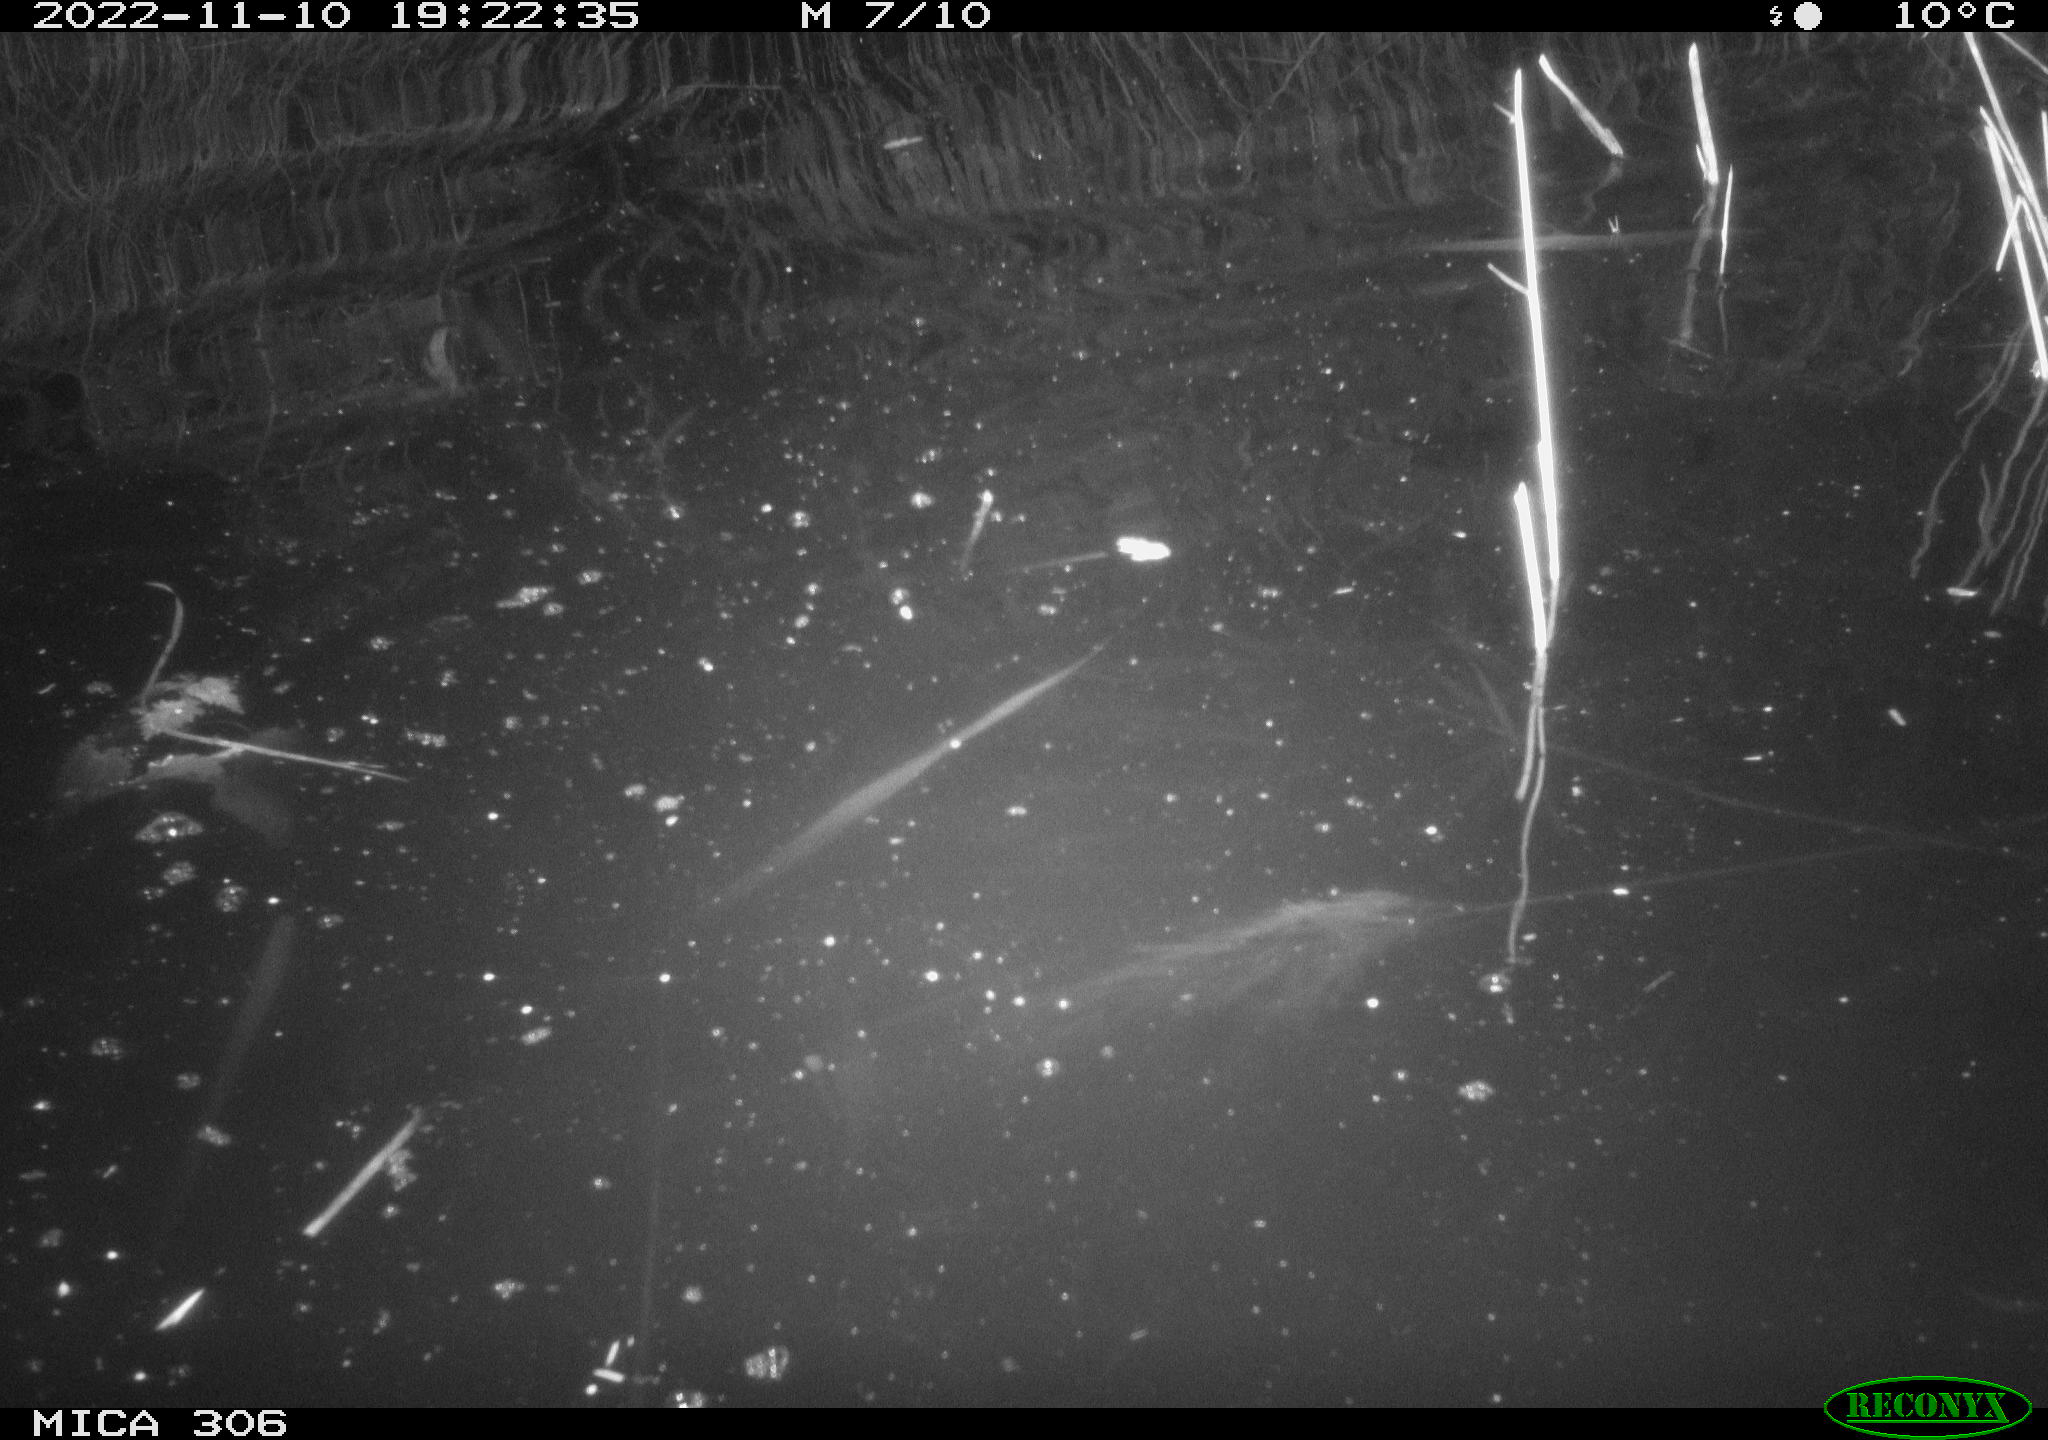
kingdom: Animalia
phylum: Chordata
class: Mammalia
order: Rodentia
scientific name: Rodentia
